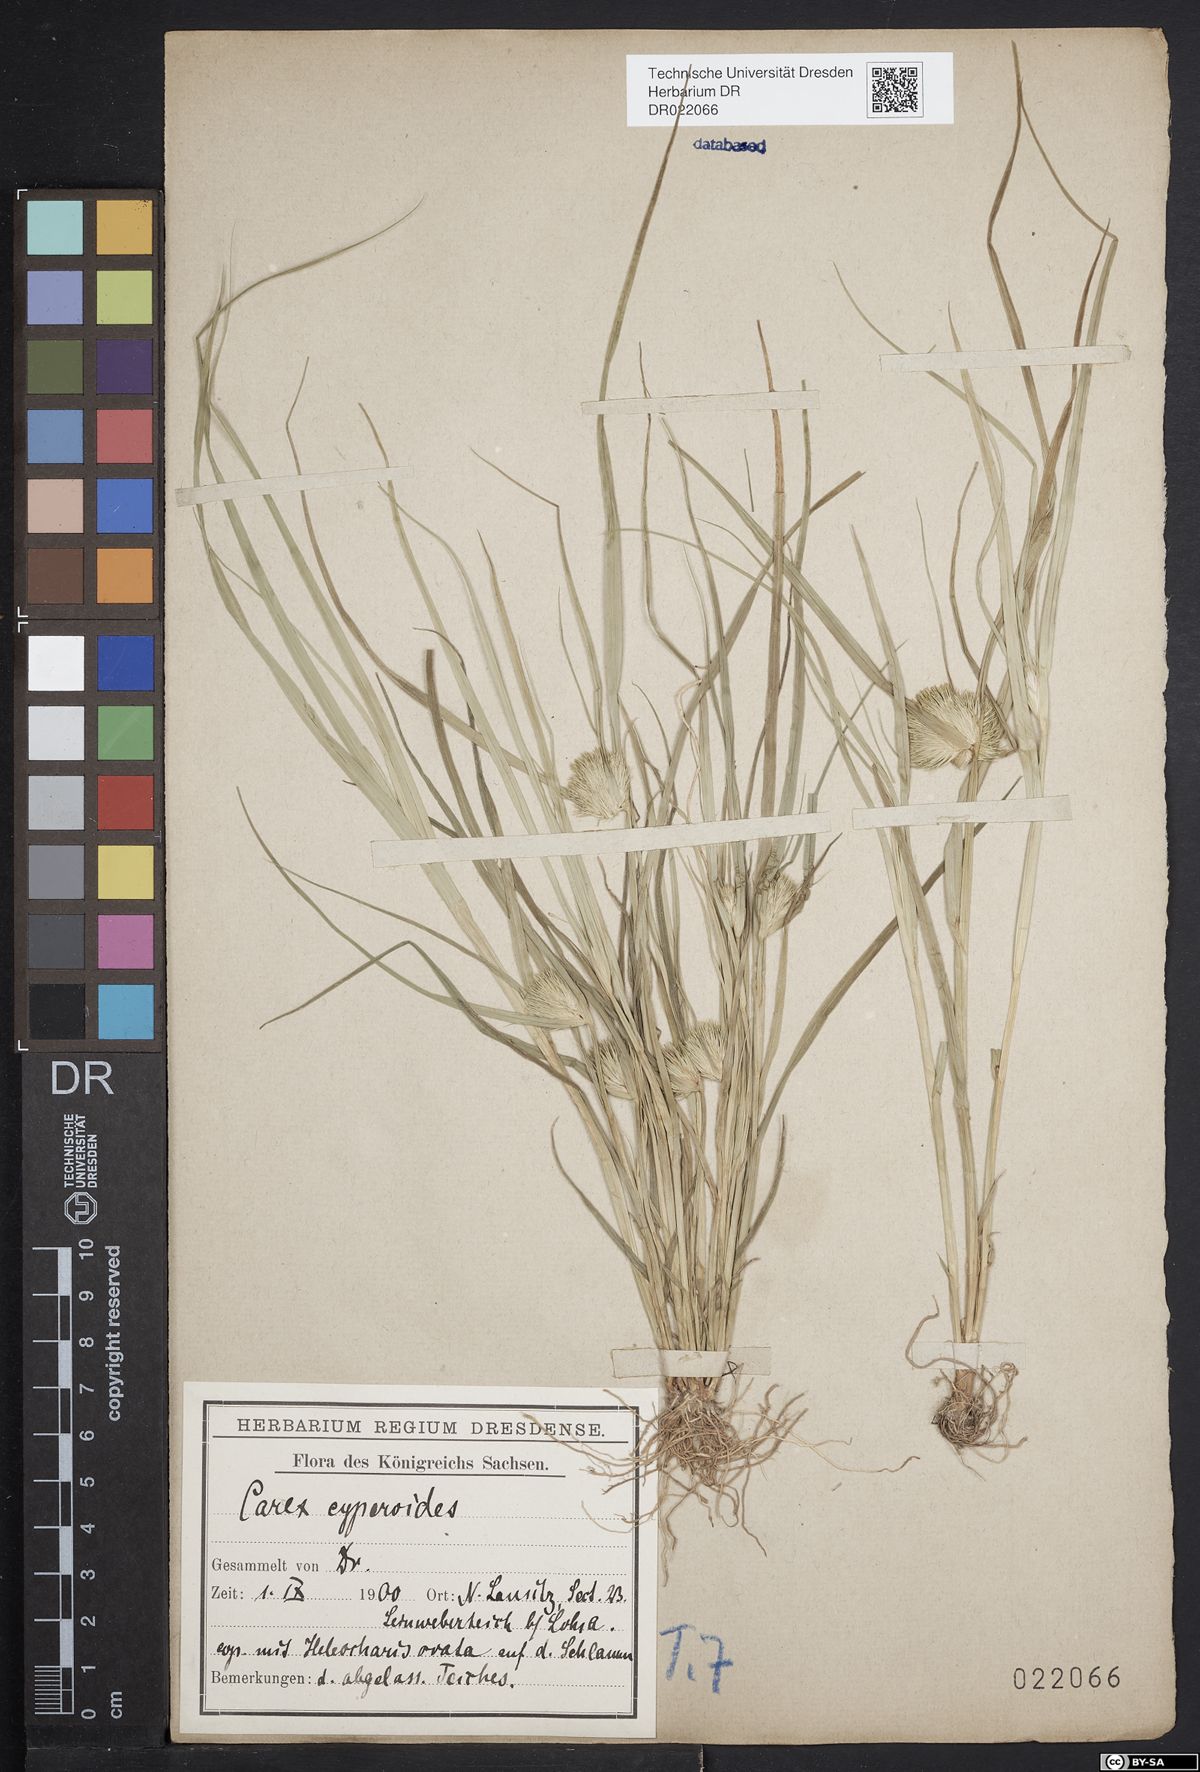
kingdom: Plantae
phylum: Tracheophyta
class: Liliopsida
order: Poales
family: Cyperaceae
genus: Carex
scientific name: Carex bohemica
